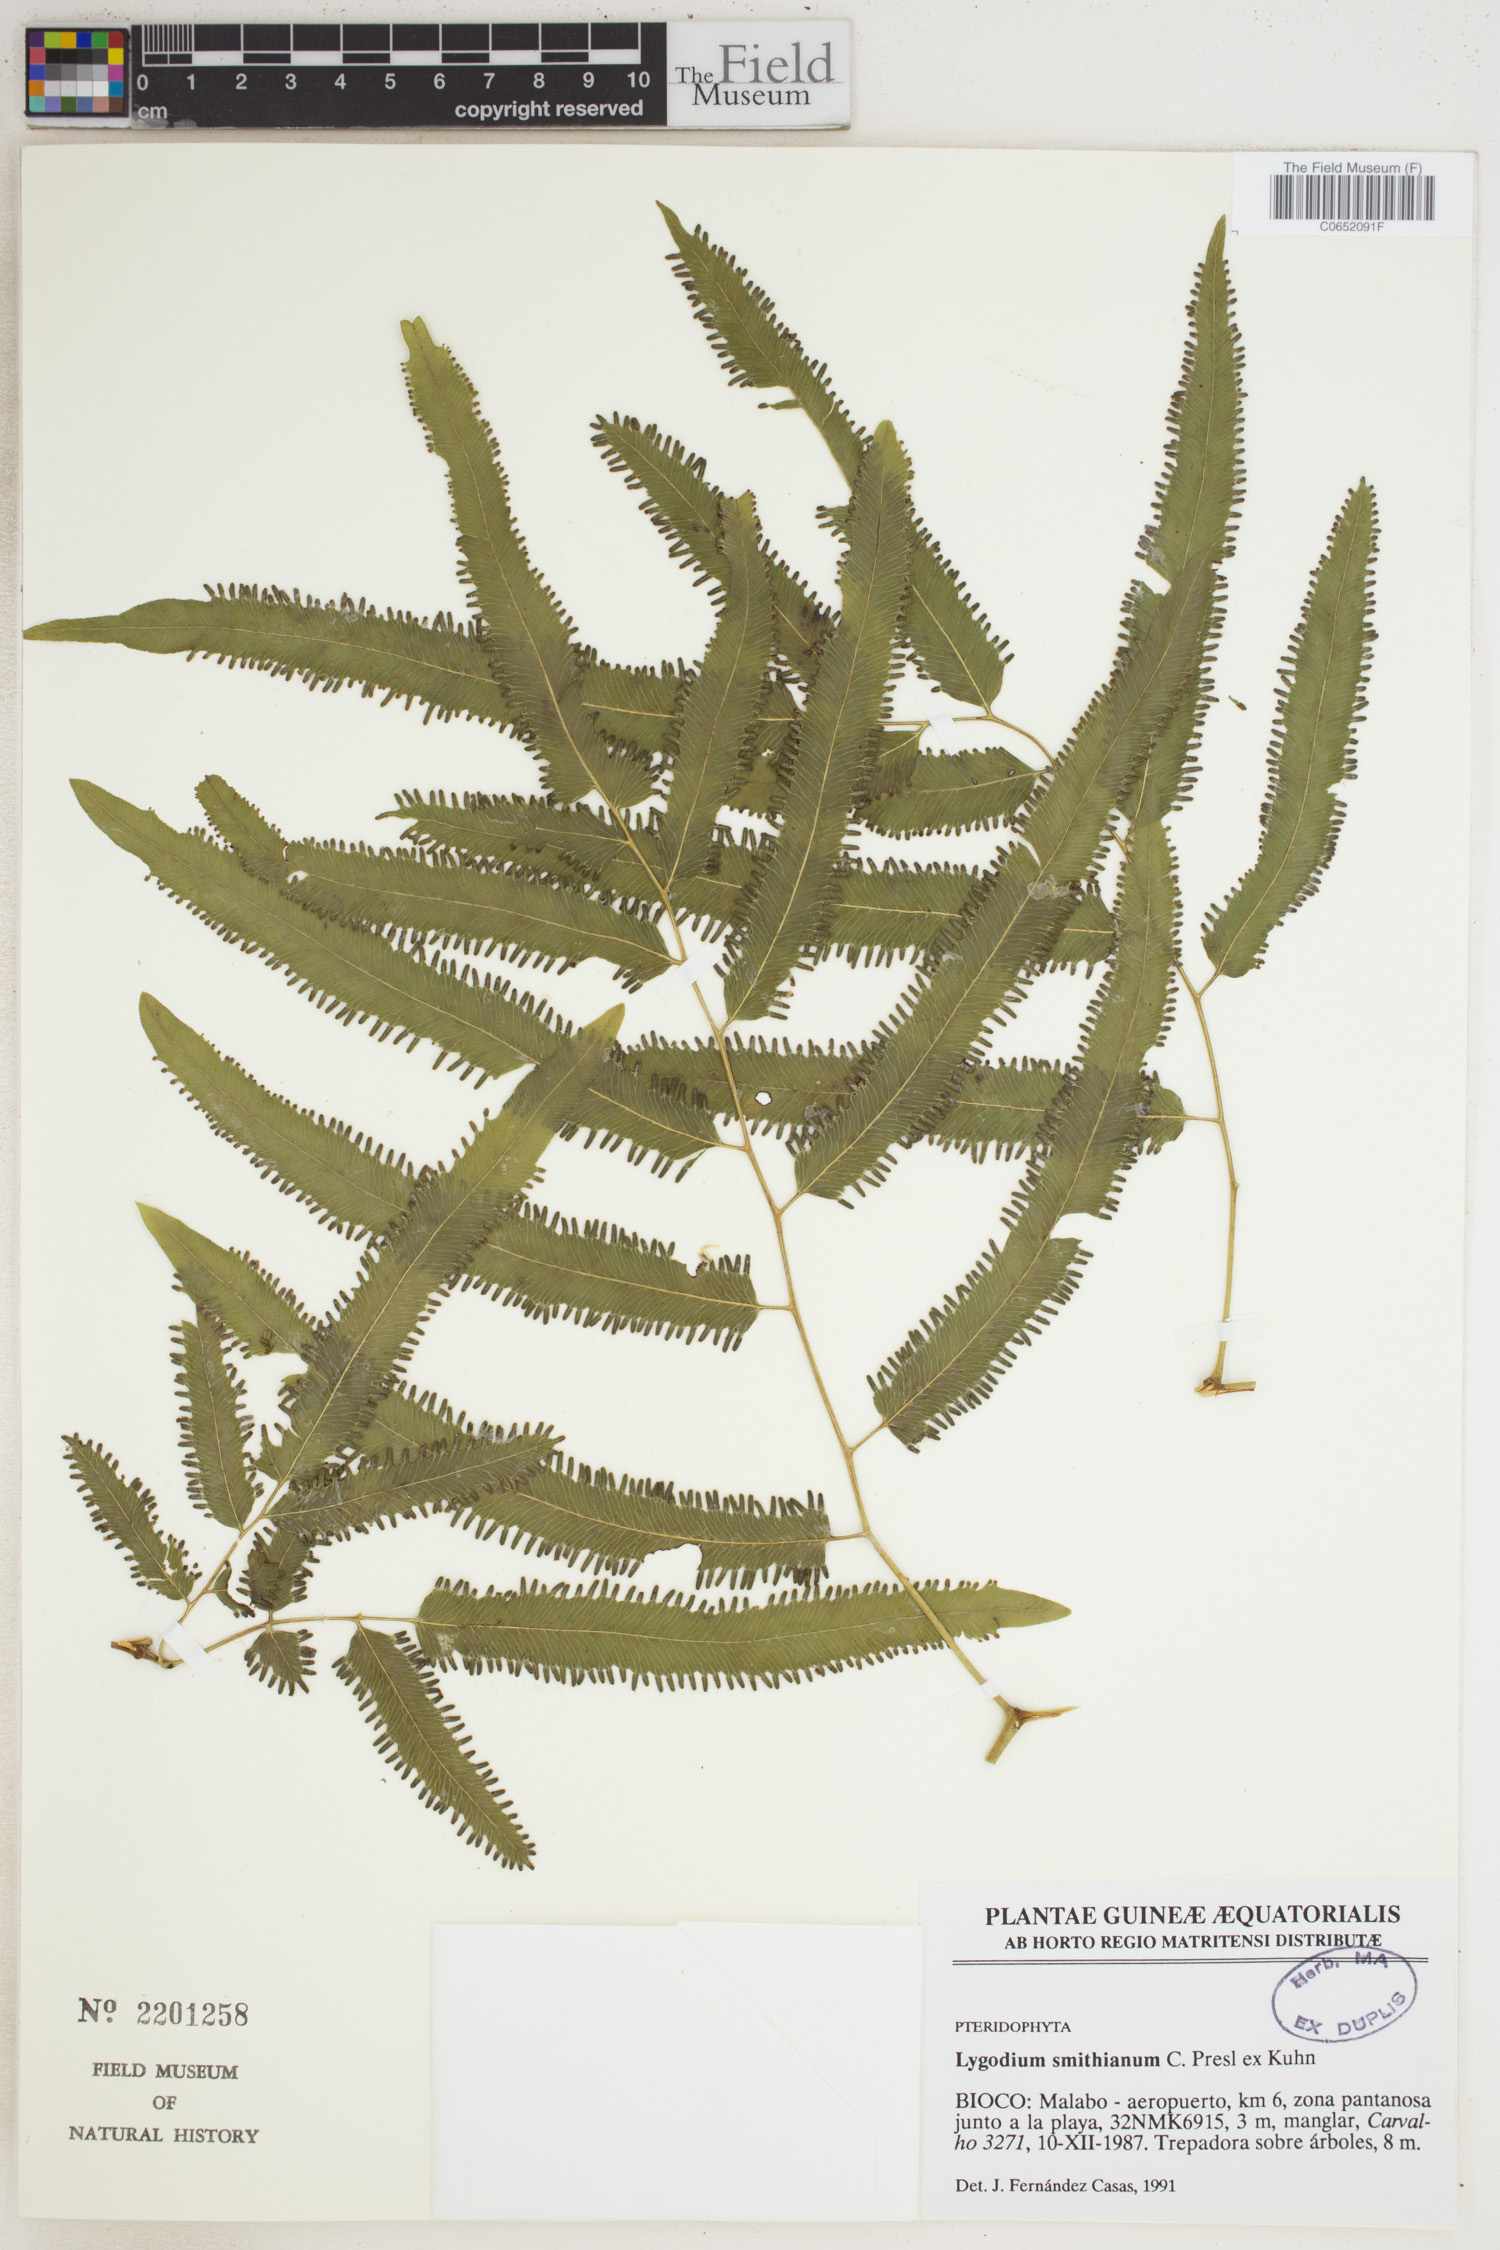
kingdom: Plantae
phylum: Tracheophyta
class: Polypodiopsida
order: Schizaeales
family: Lygodiaceae
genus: Lygodium
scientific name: Lygodium smithianum
